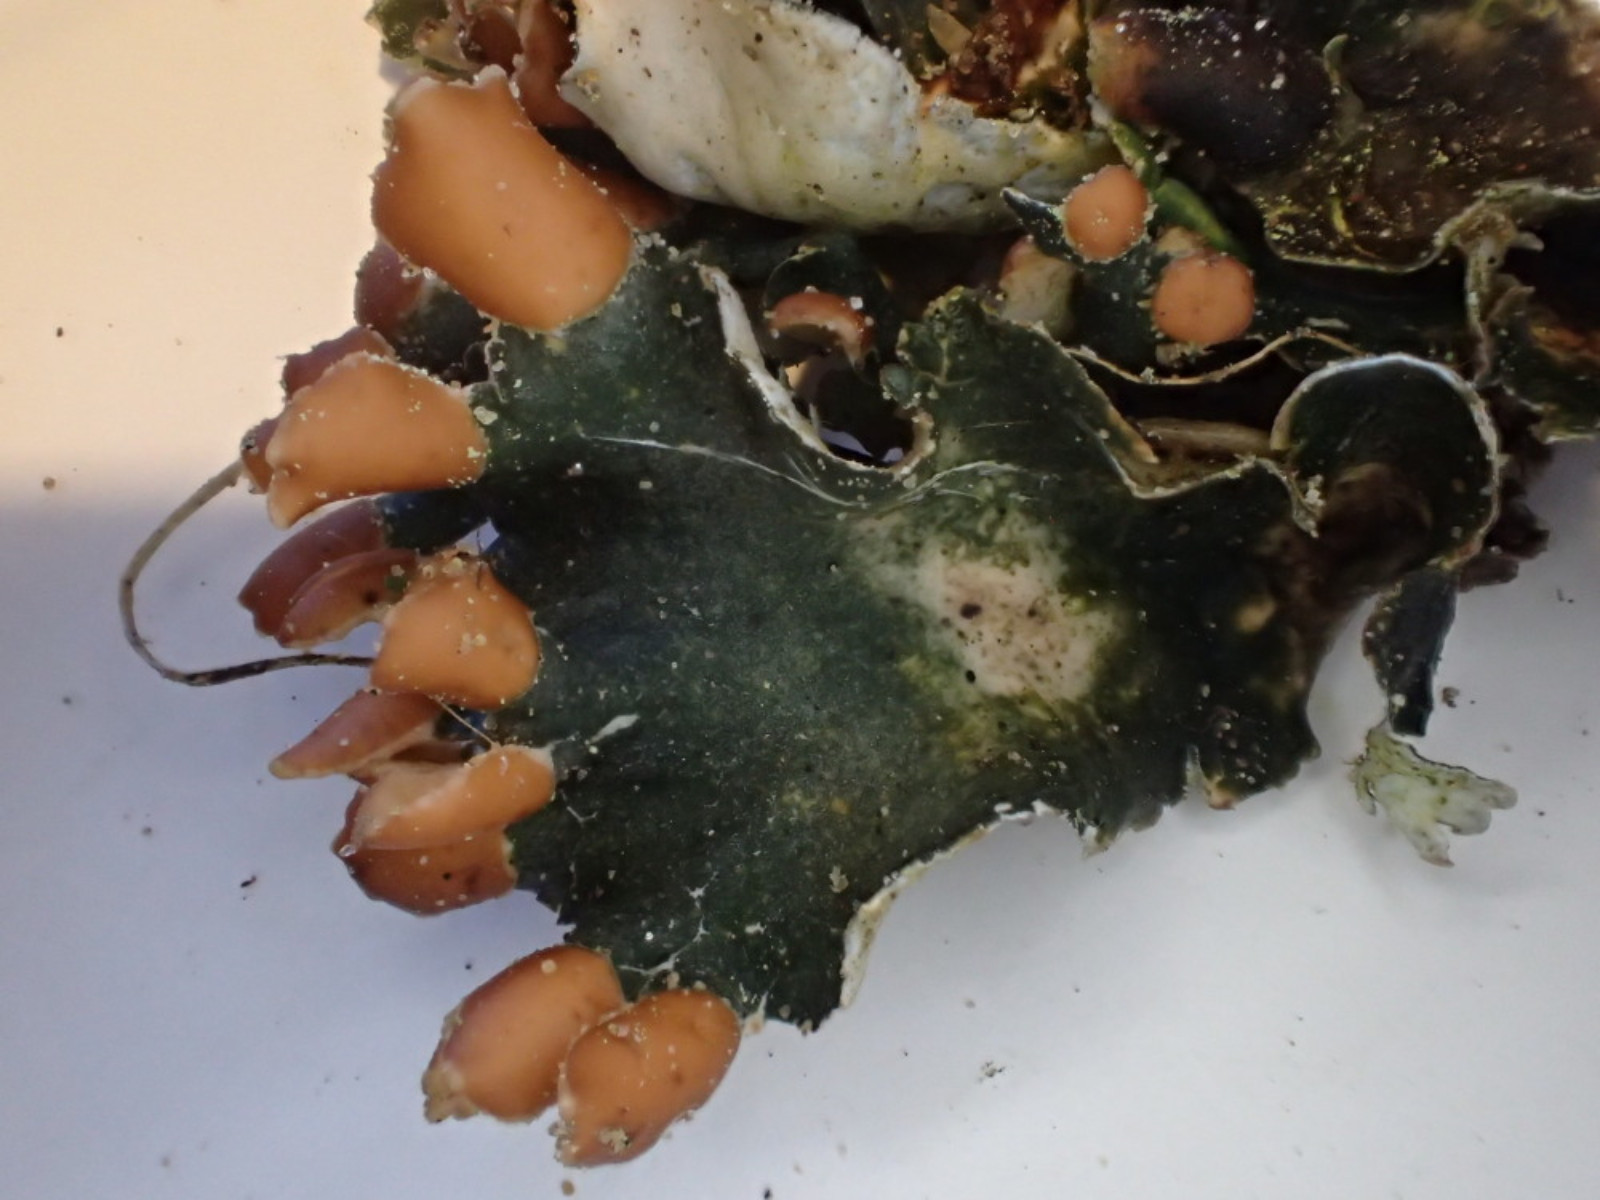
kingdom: Fungi
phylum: Ascomycota
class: Lecanoromycetes
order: Peltigerales
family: Peltigeraceae
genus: Peltigera
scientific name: Peltigera hymenina
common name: hinde-skjoldlav
